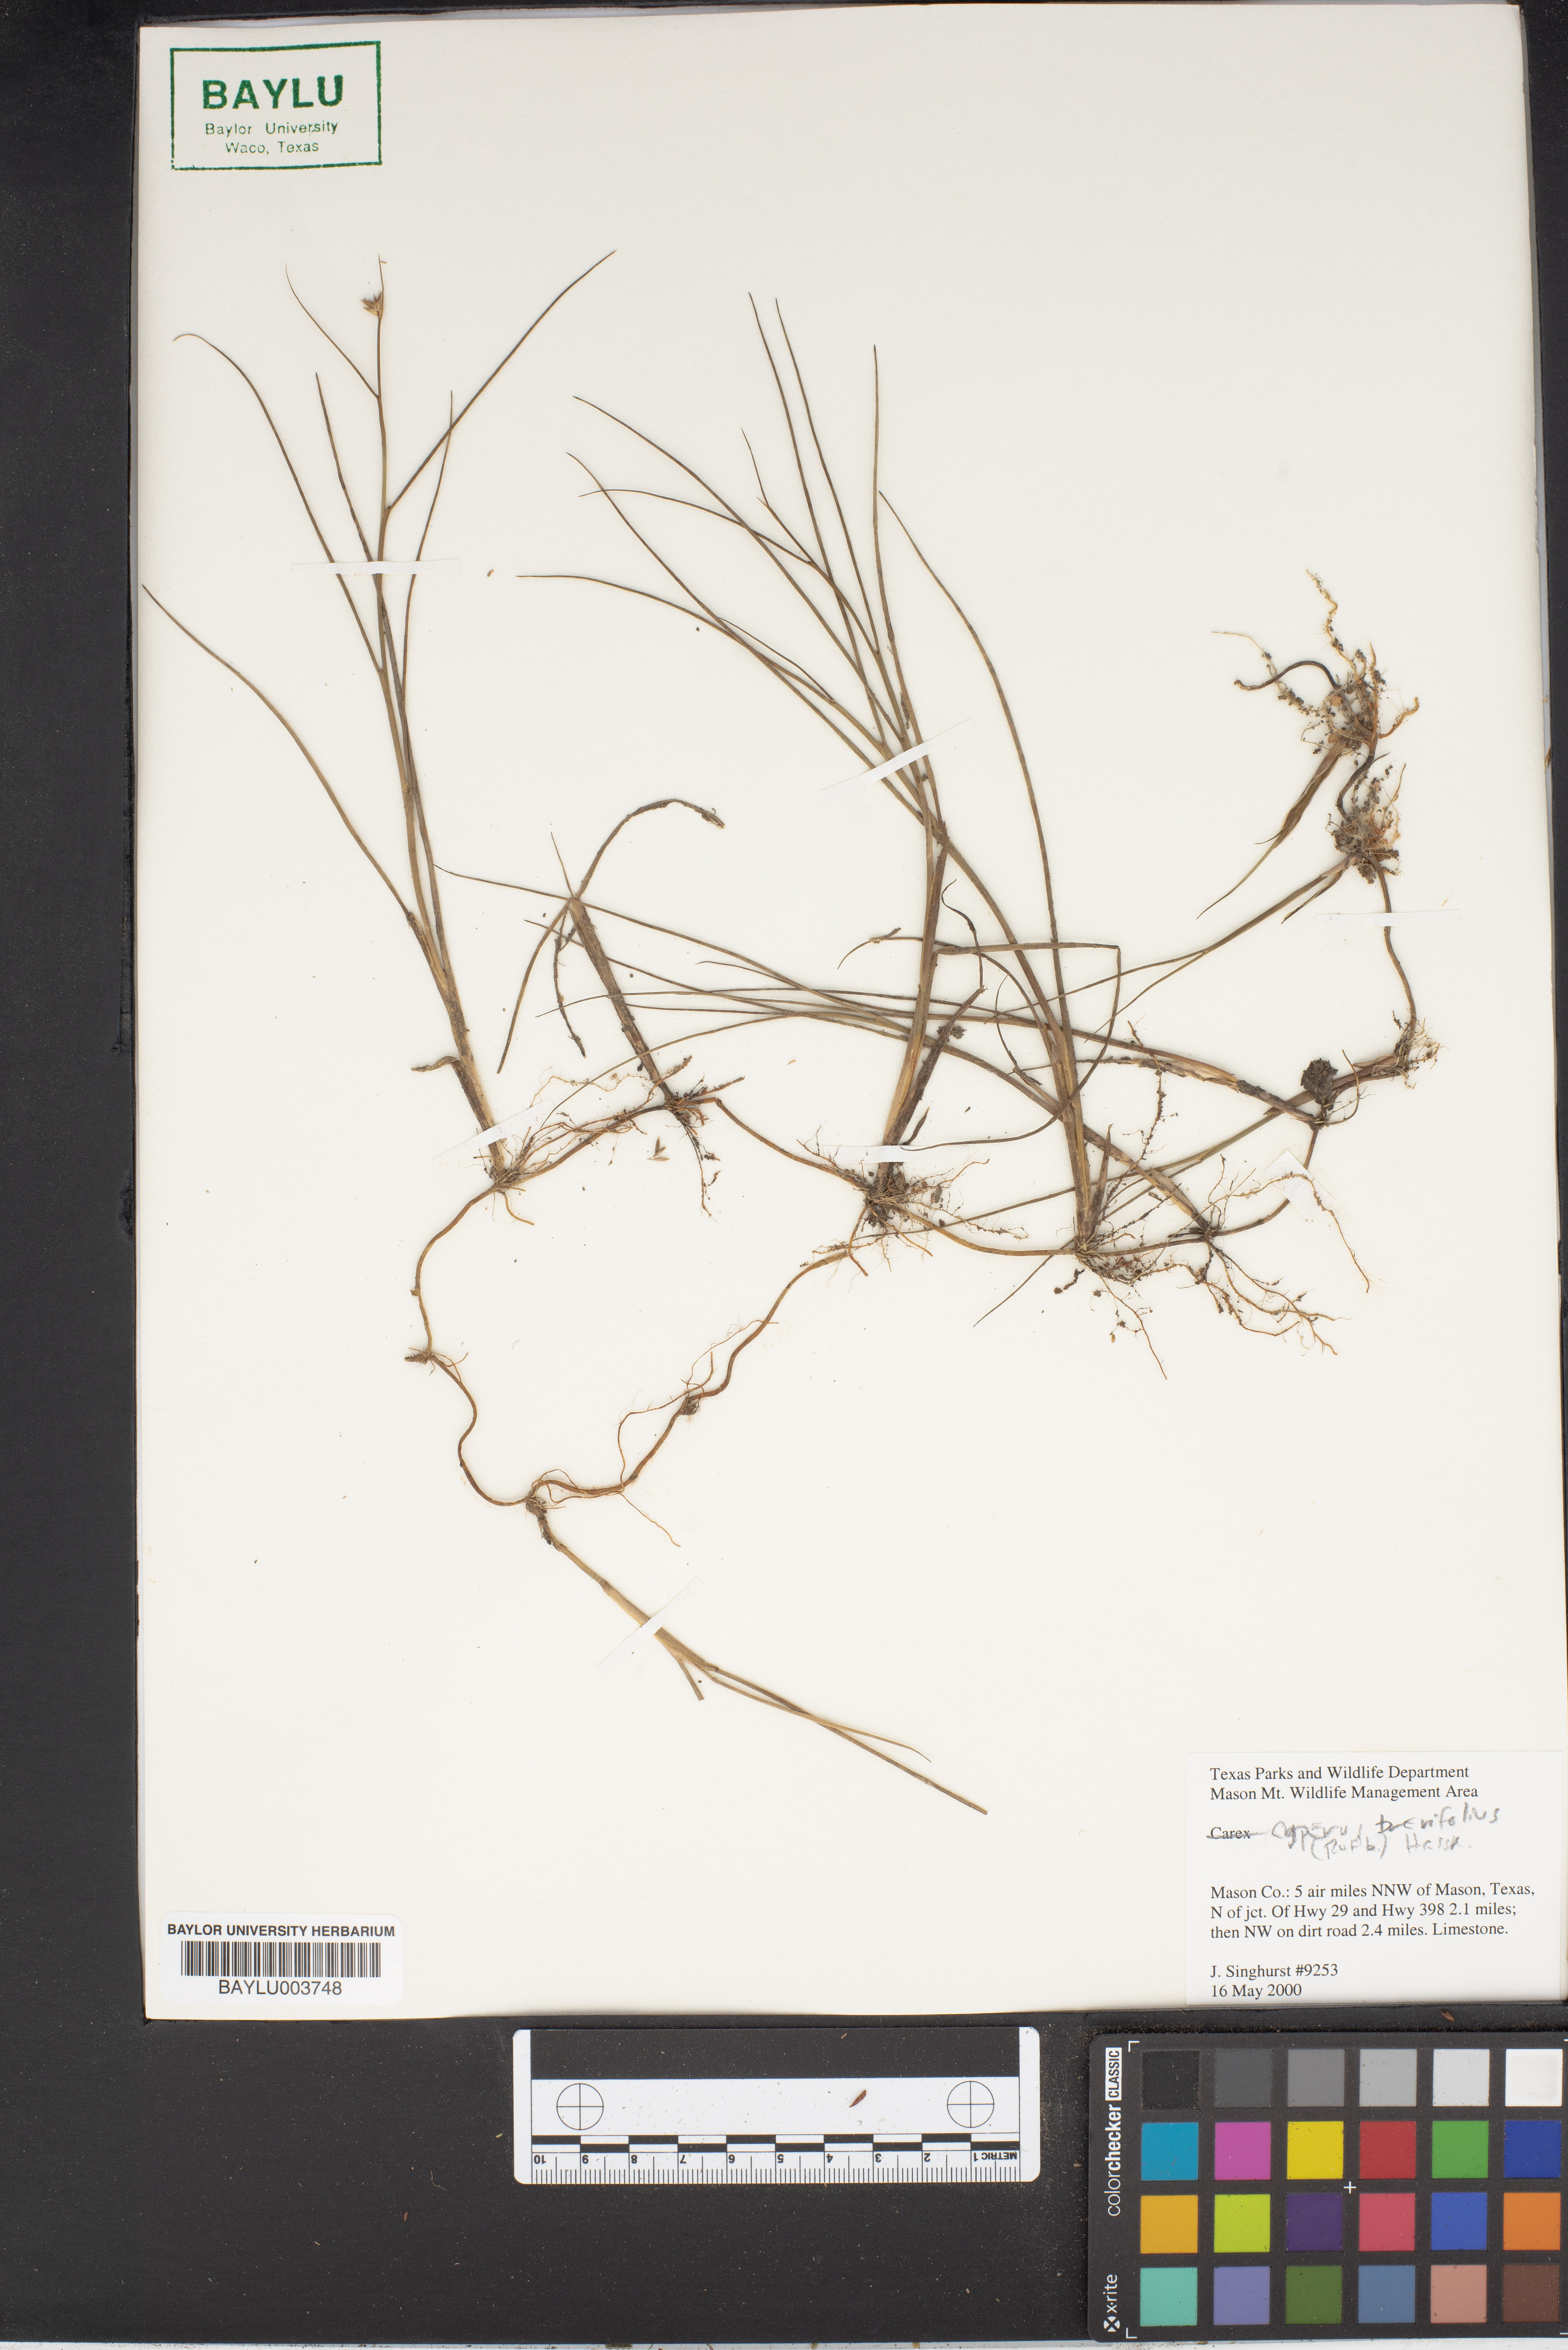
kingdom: Plantae
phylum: Tracheophyta
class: Liliopsida
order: Poales
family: Cyperaceae
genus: Cyperus
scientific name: Cyperus brevifolius
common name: Globe kyllinga
